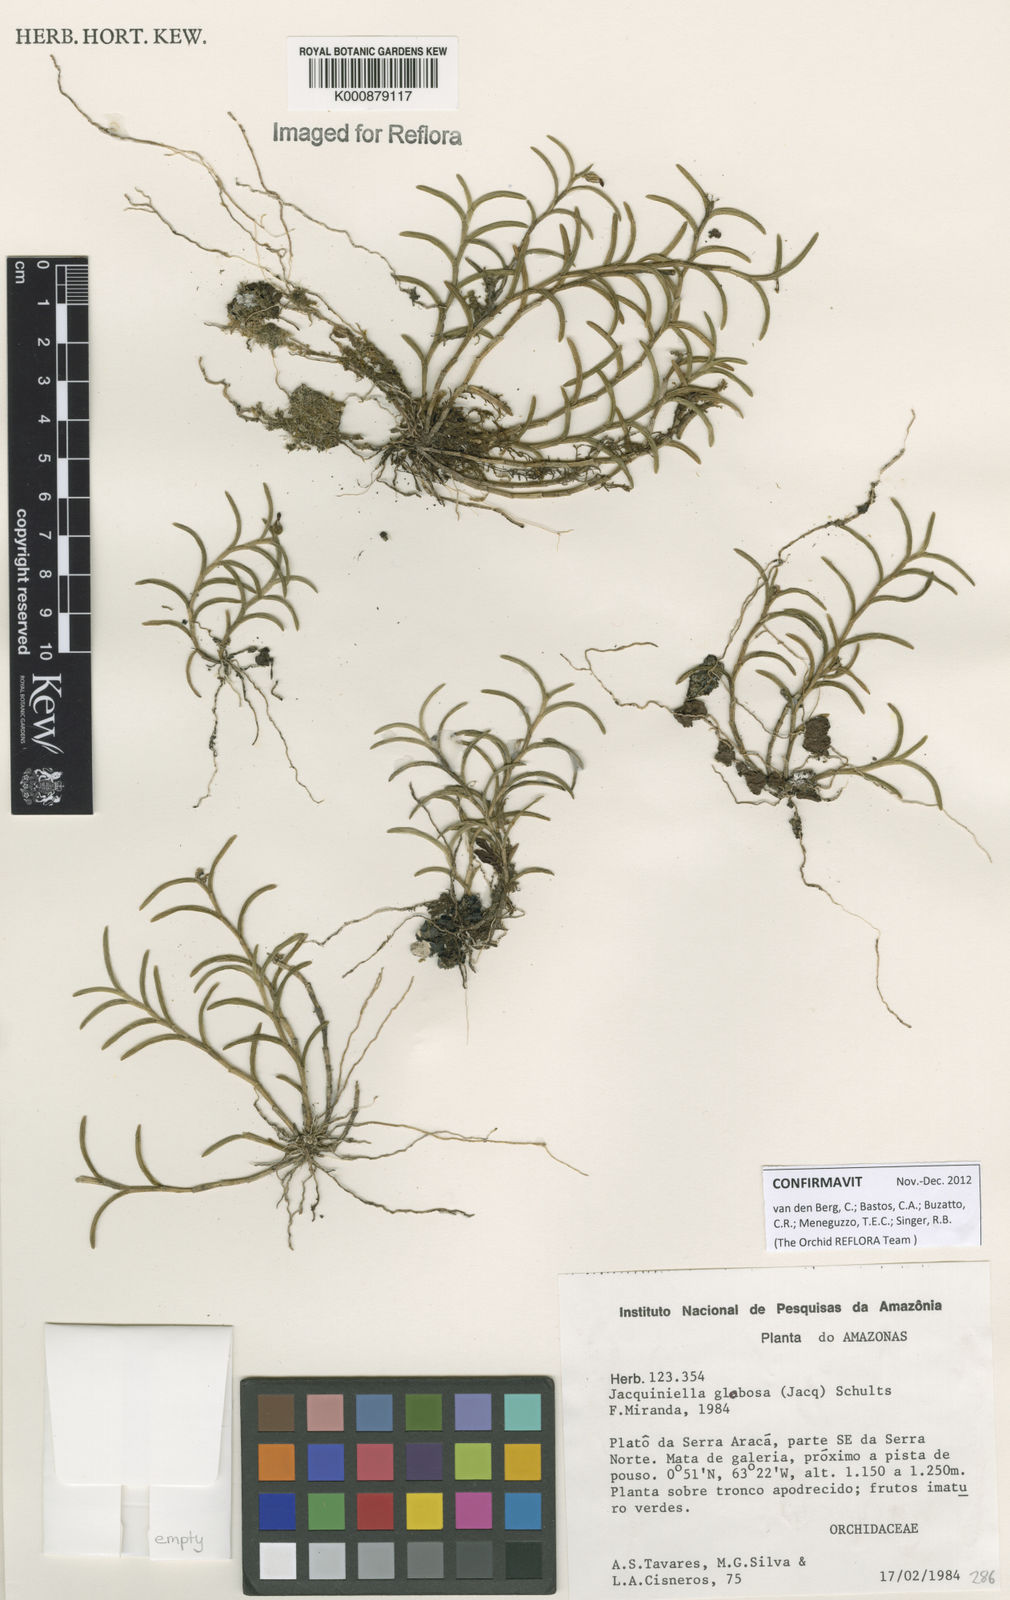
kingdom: Plantae
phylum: Tracheophyta
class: Liliopsida
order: Asparagales
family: Orchidaceae
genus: Jacquiniella
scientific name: Jacquiniella globosa
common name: Redblotch tufted orchid
